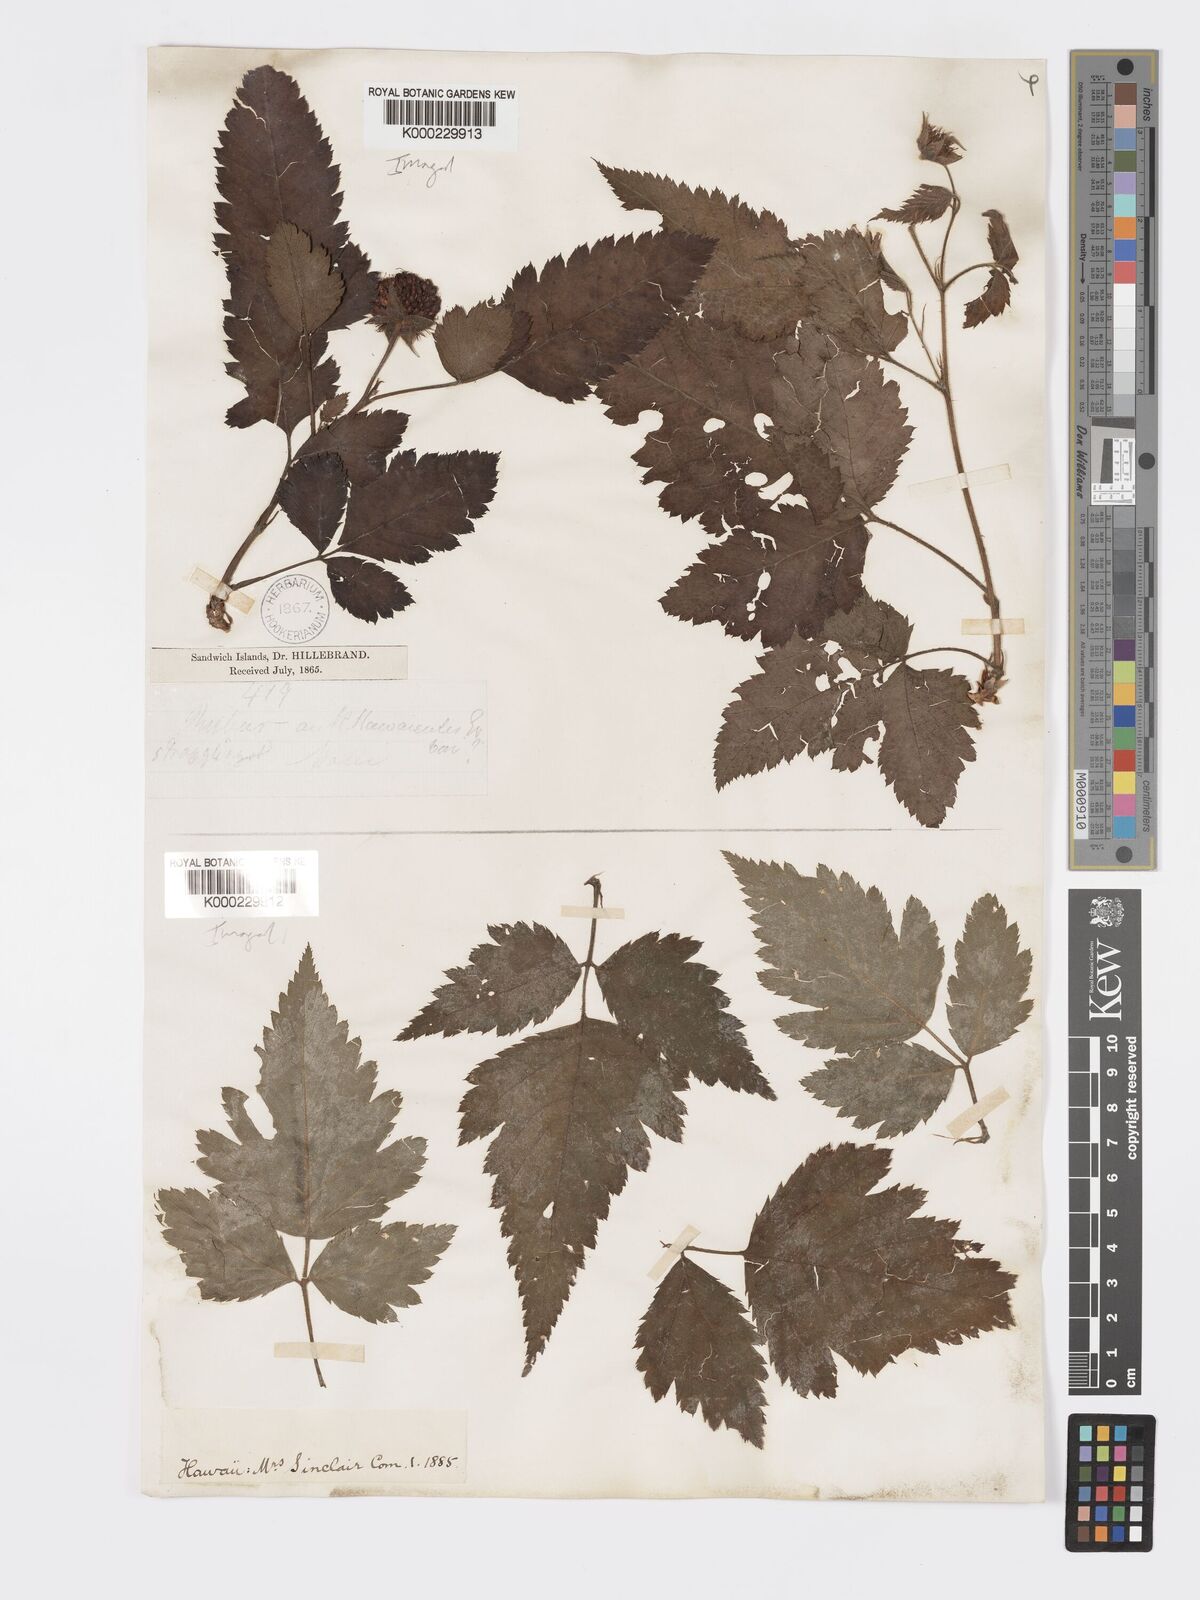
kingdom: Plantae
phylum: Tracheophyta
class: Magnoliopsida
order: Rosales
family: Rosaceae
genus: Rubus
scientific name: Rubus hawaiensis
